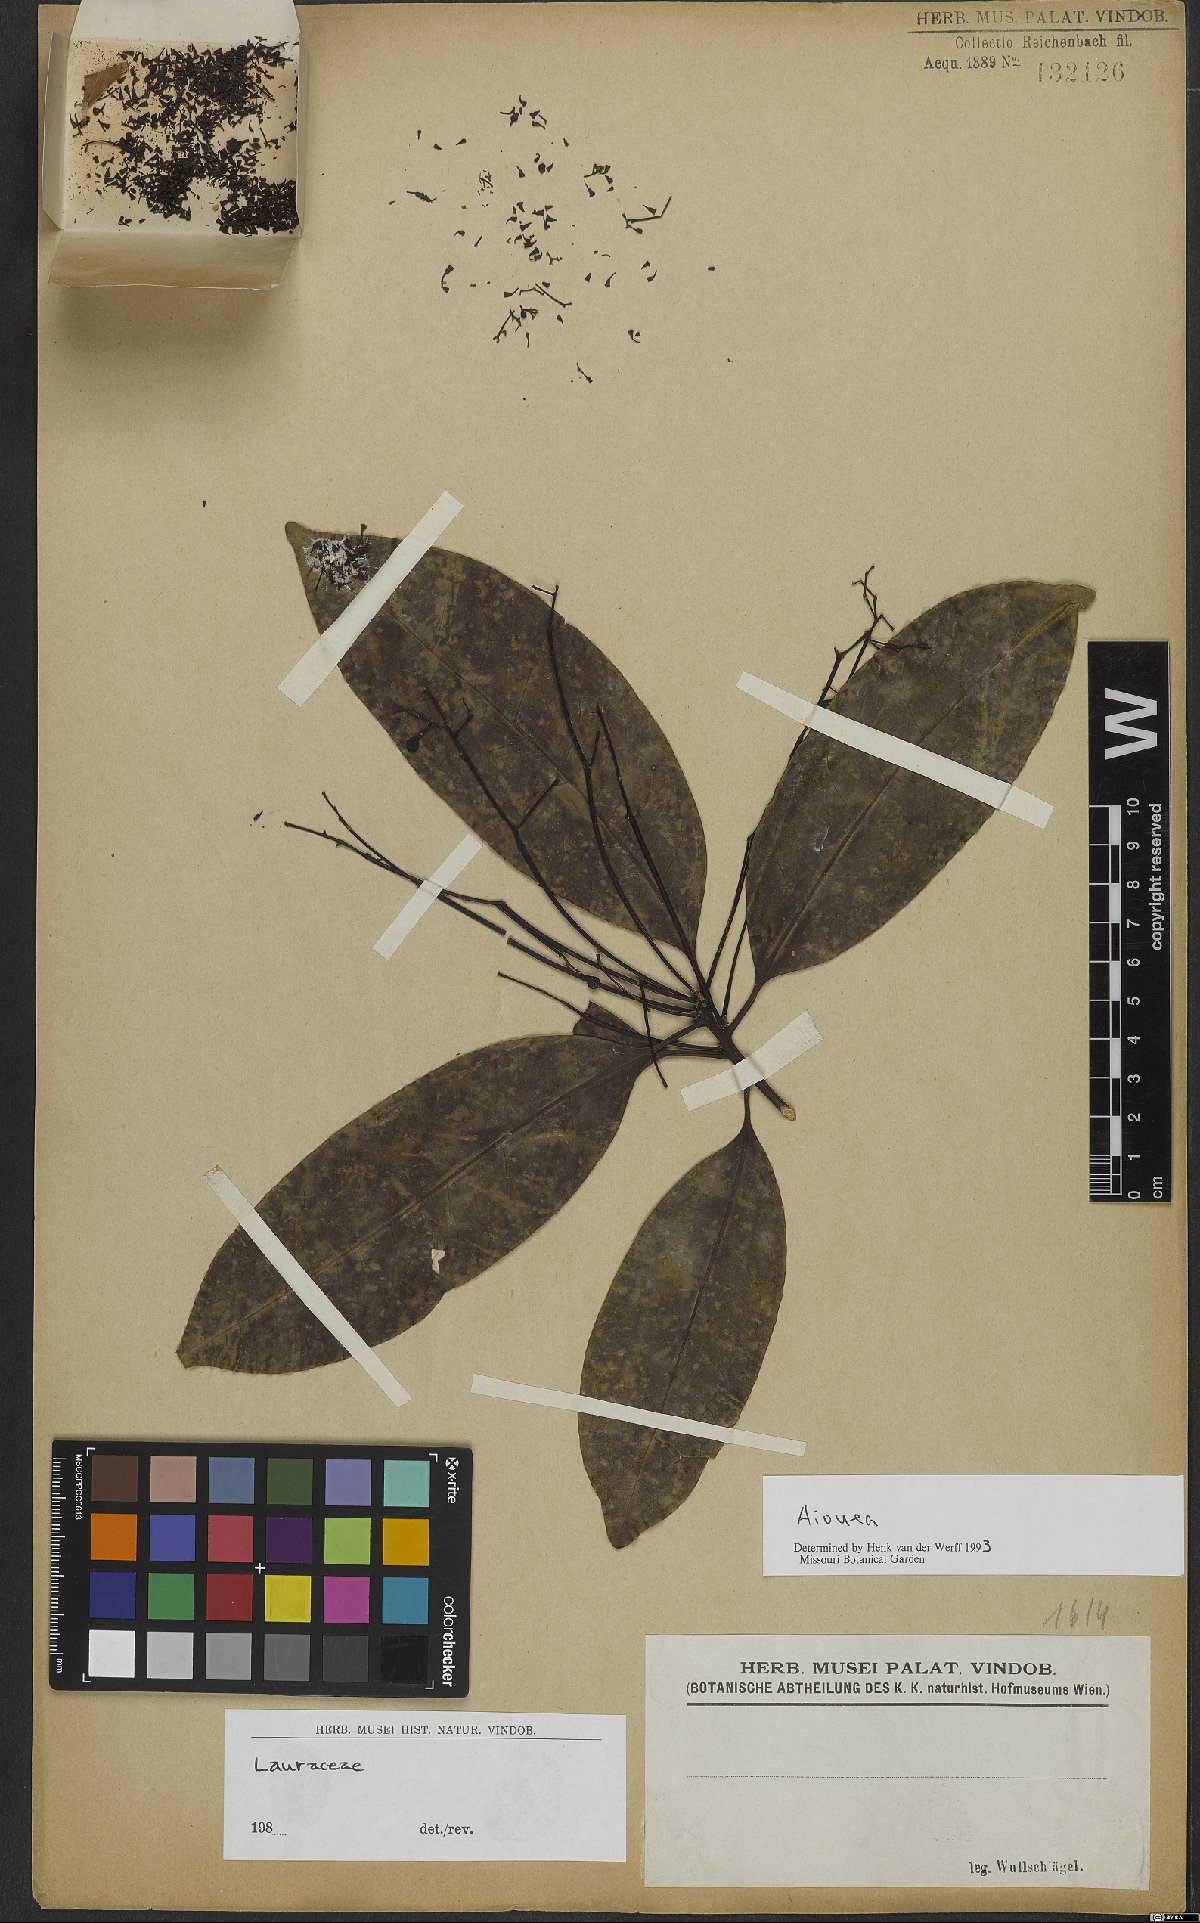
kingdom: Plantae
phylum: Tracheophyta
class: Magnoliopsida
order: Laurales
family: Lauraceae
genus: Aiouea
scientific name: Aiouea
